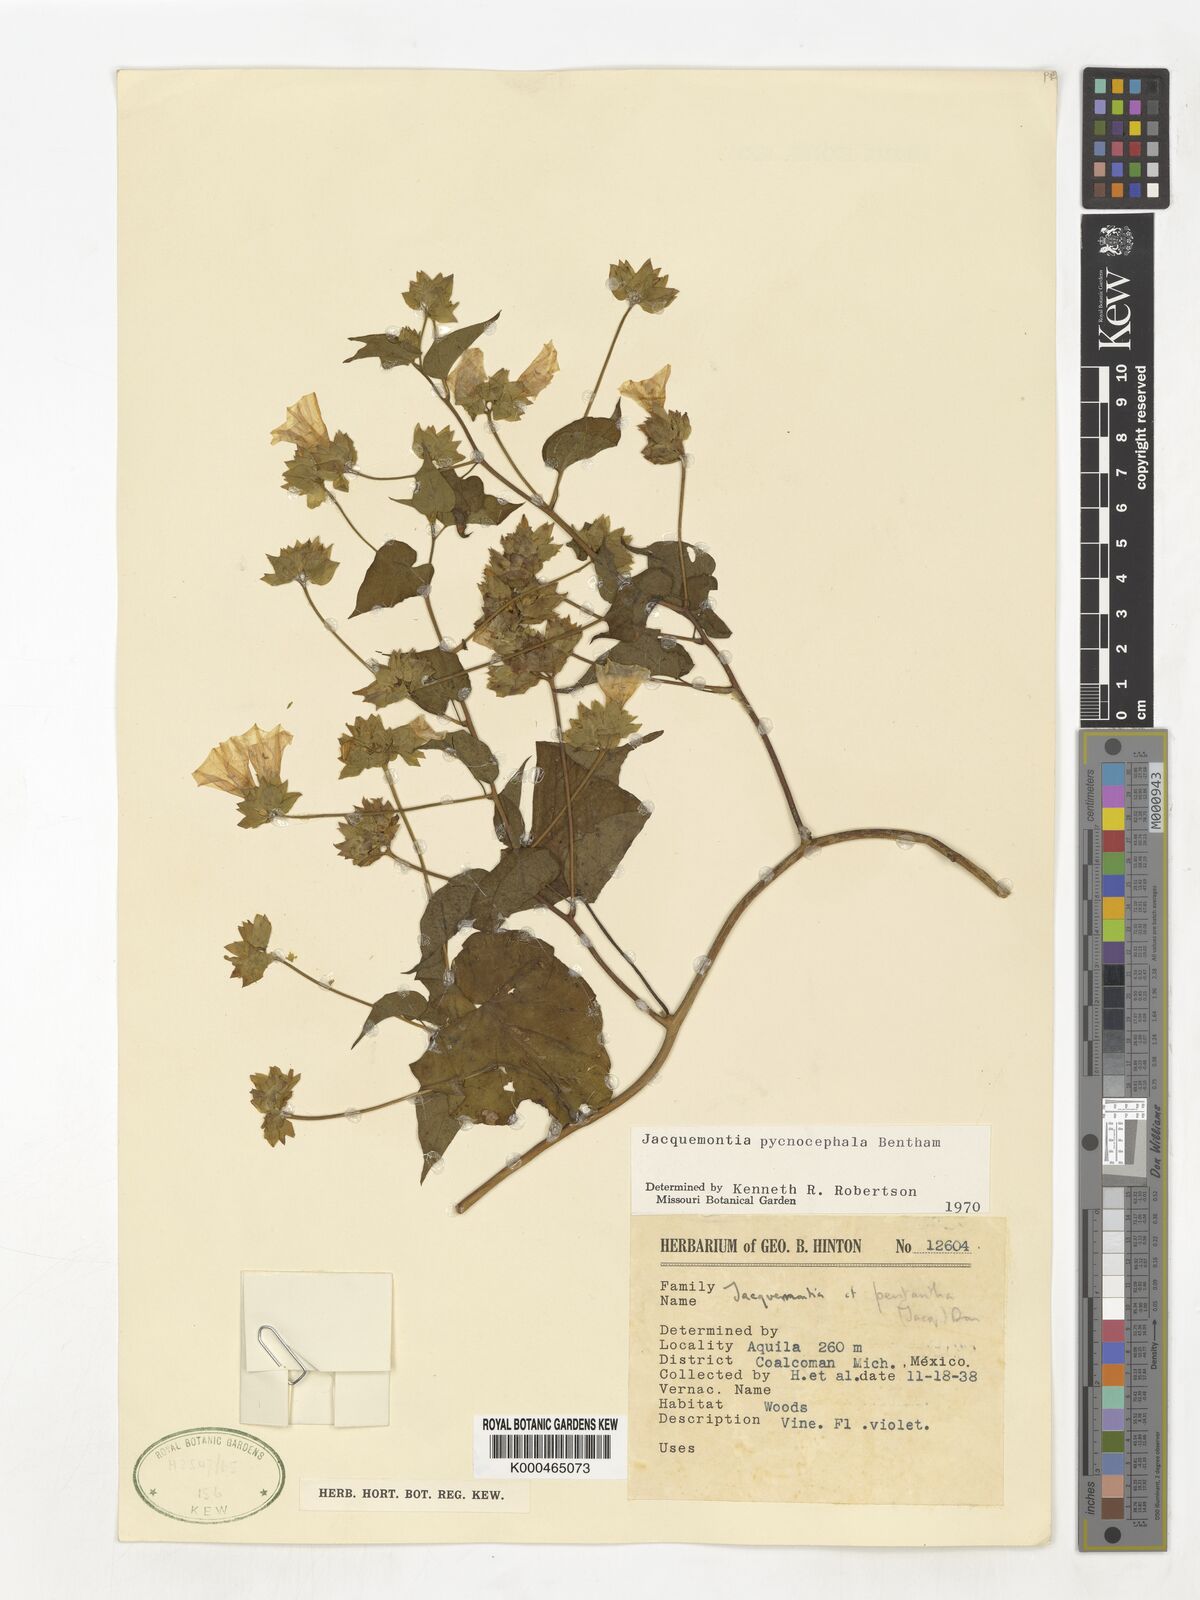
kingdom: Plantae
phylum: Tracheophyta
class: Magnoliopsida
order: Solanales
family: Convolvulaceae
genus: Jacquemontia
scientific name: Jacquemontia pycnocephala
